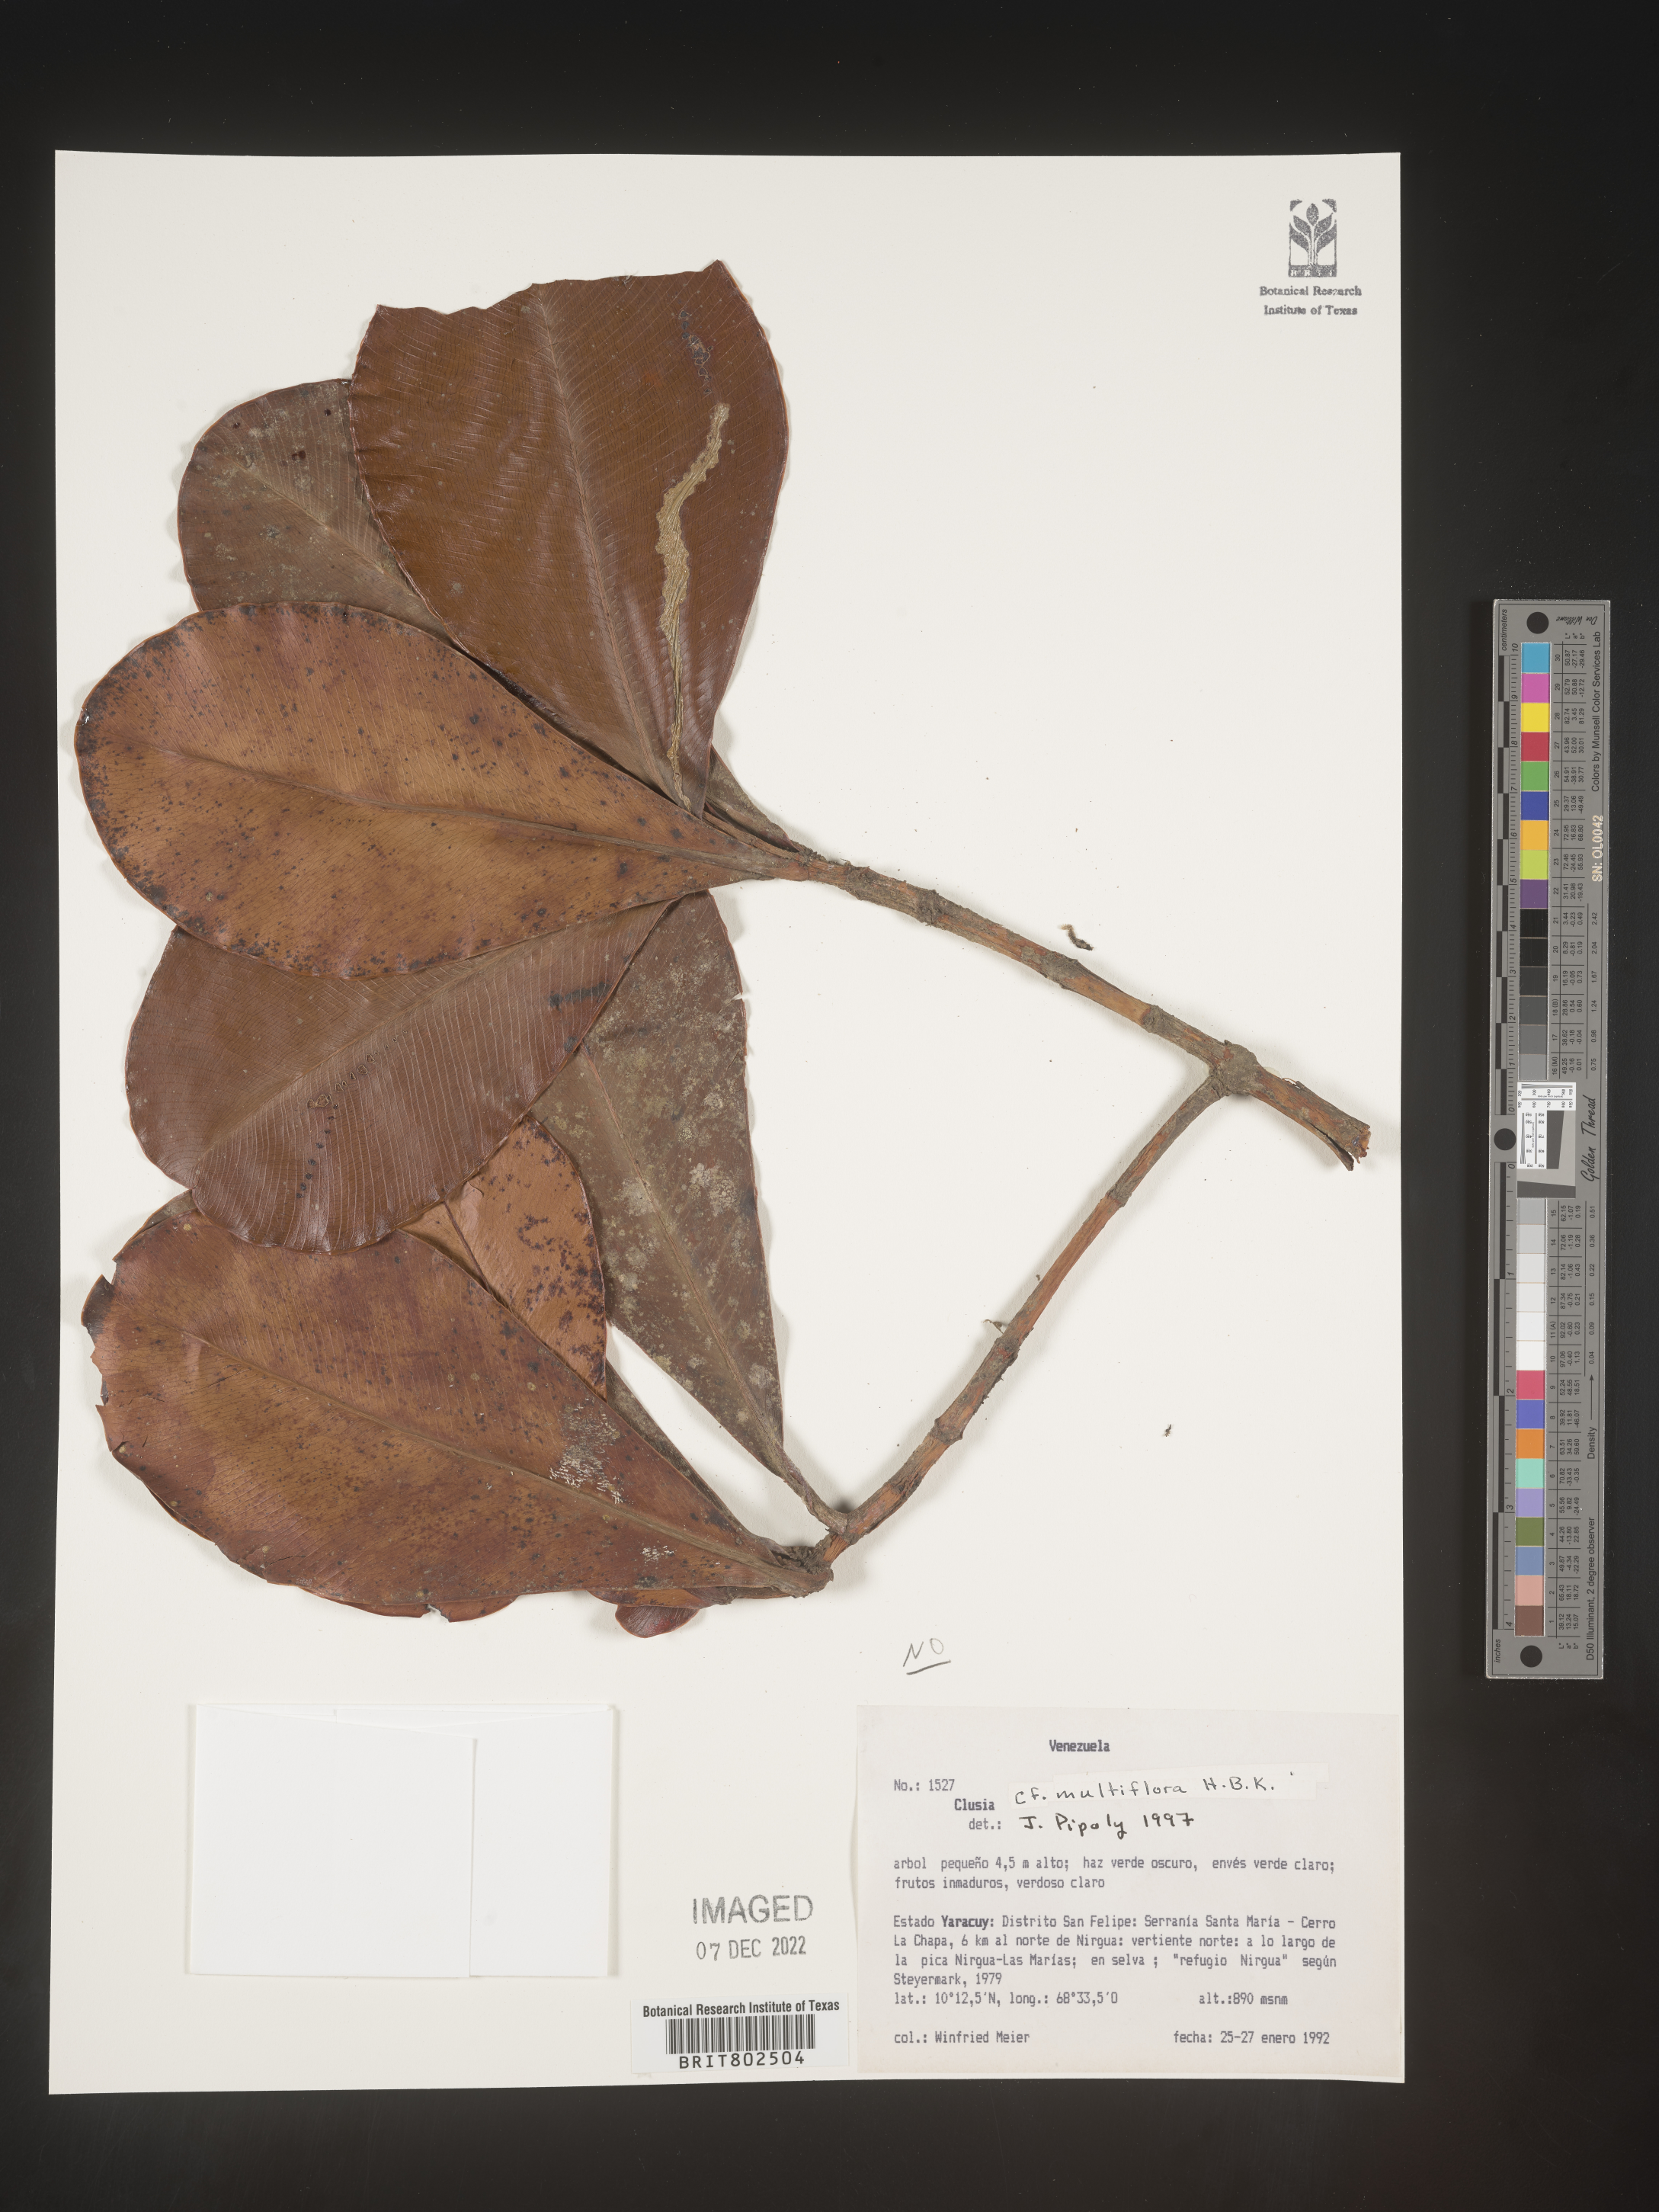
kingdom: Plantae
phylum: Tracheophyta
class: Magnoliopsida
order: Malpighiales
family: Clusiaceae
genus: Clusia
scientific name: Clusia multiflora
